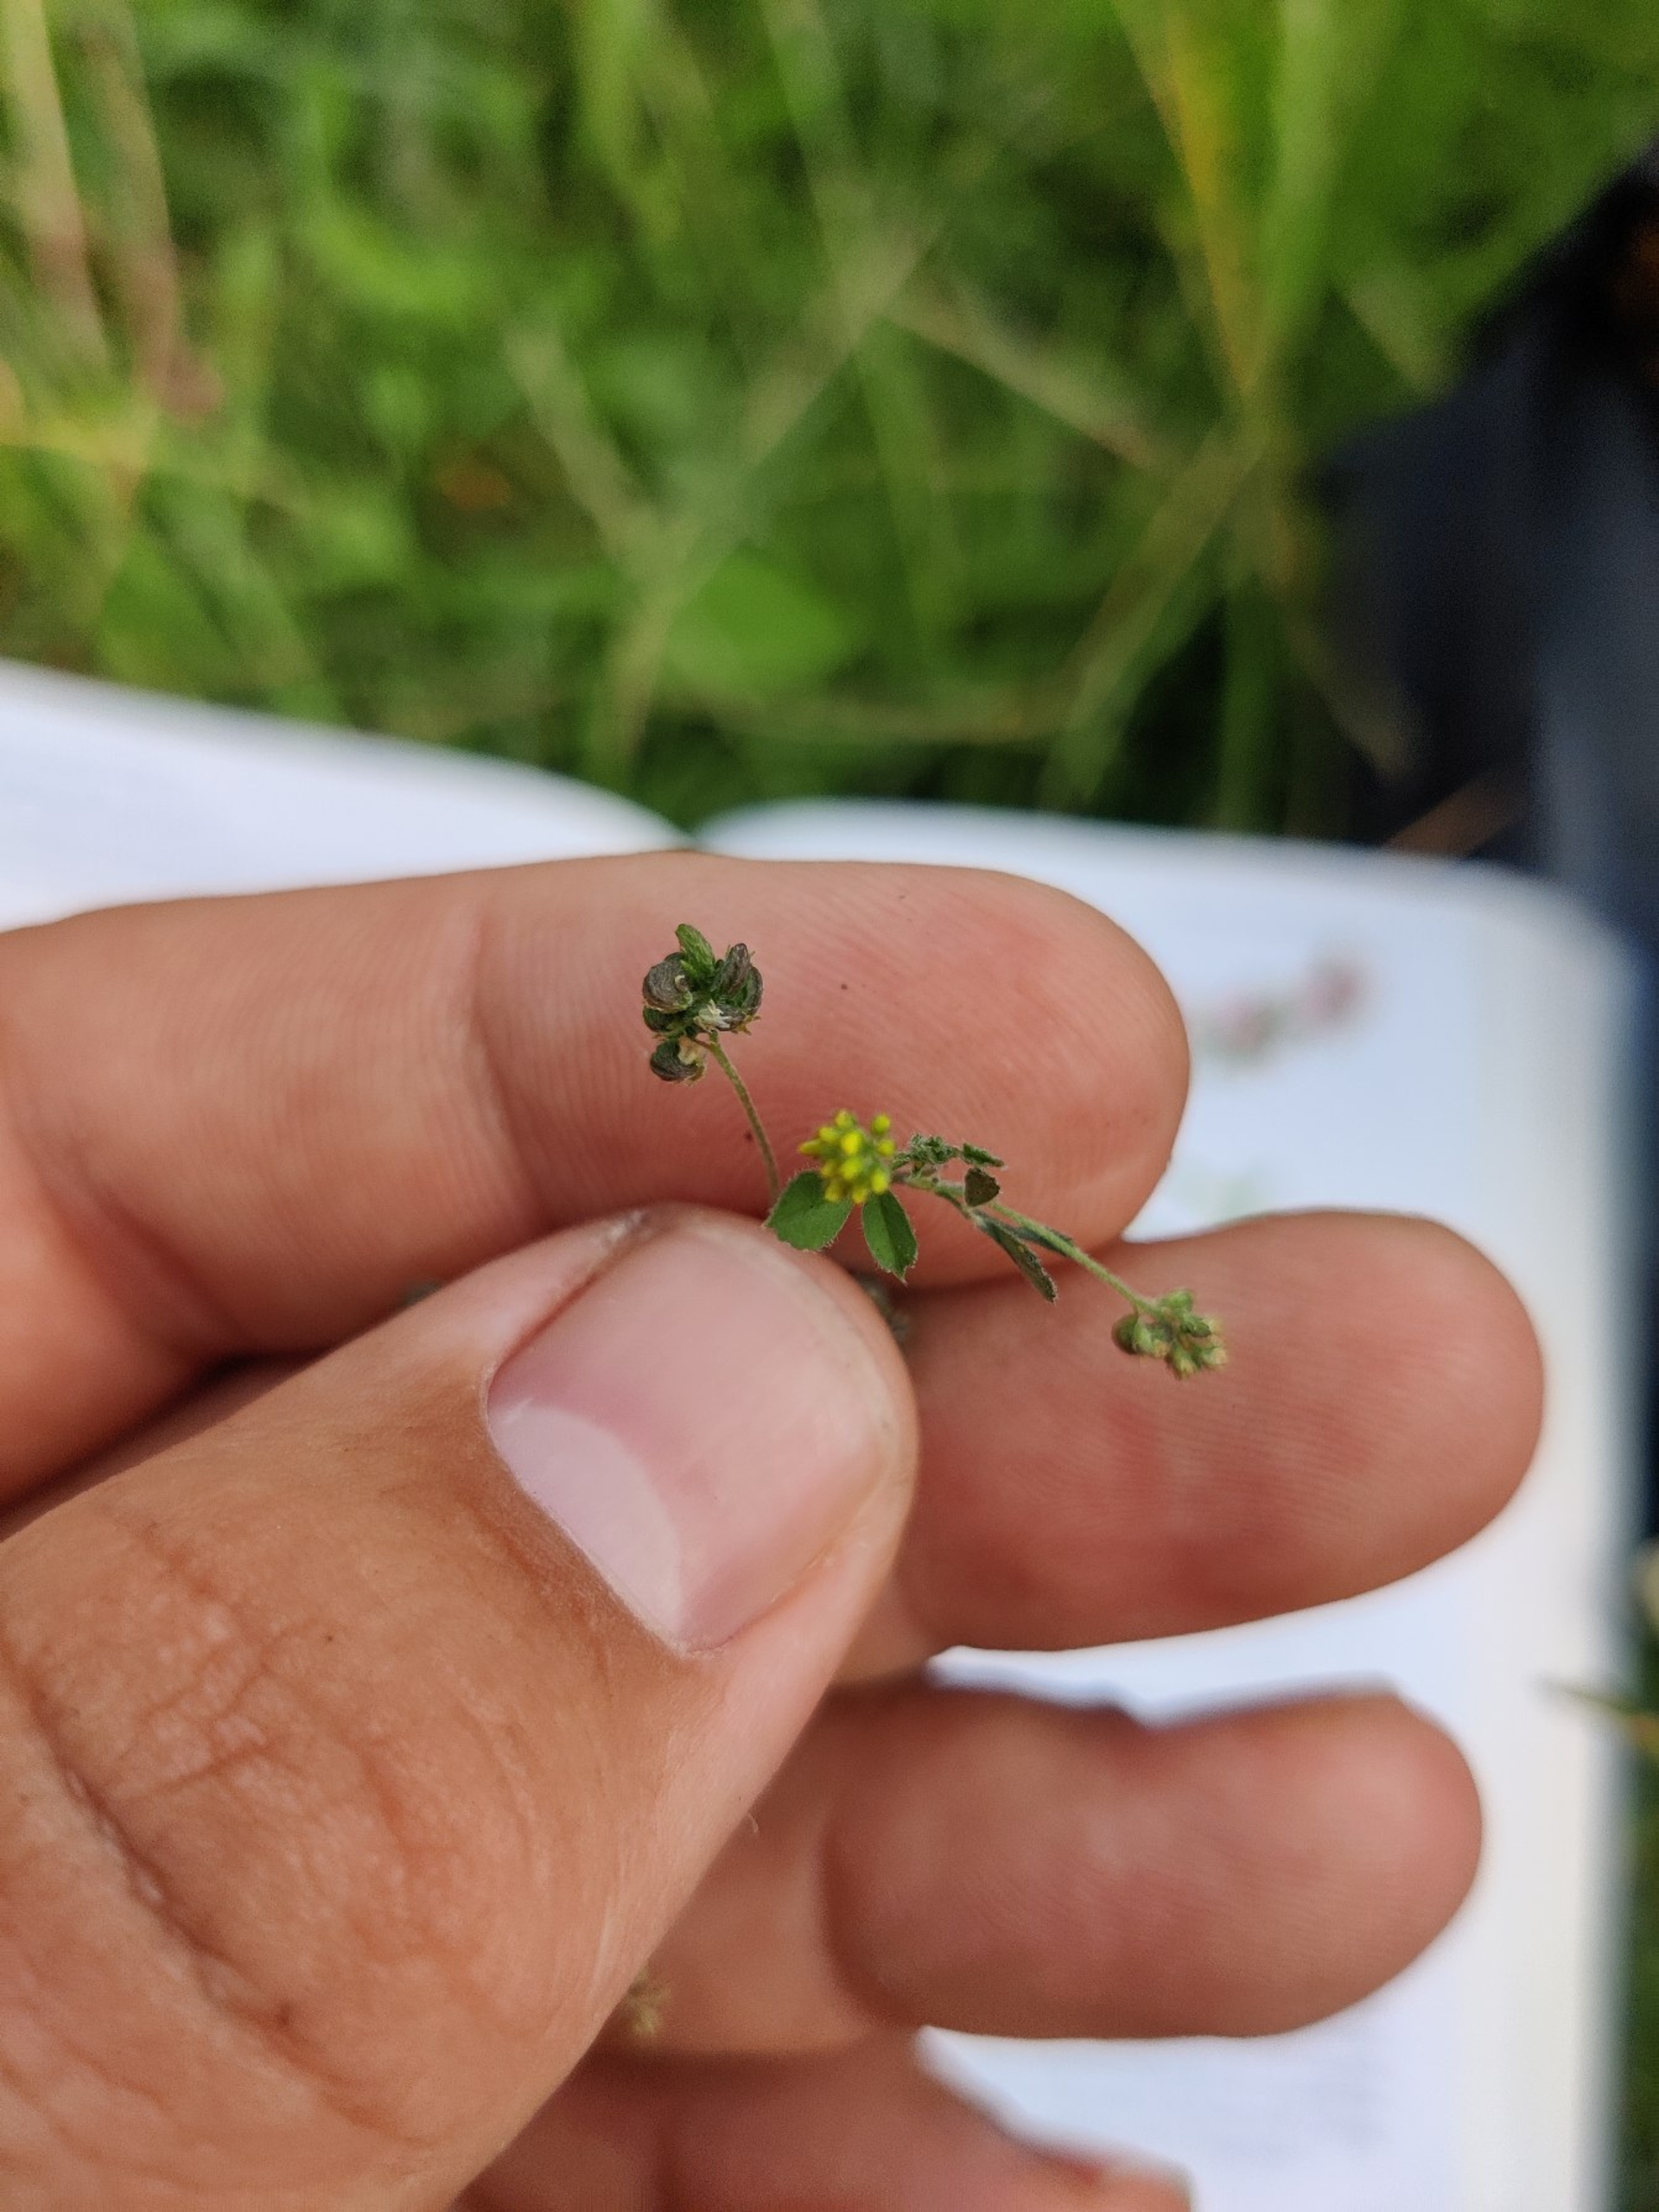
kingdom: Plantae
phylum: Tracheophyta
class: Magnoliopsida
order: Fabales
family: Fabaceae
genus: Medicago
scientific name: Medicago lupulina
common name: Humle-sneglebælg
